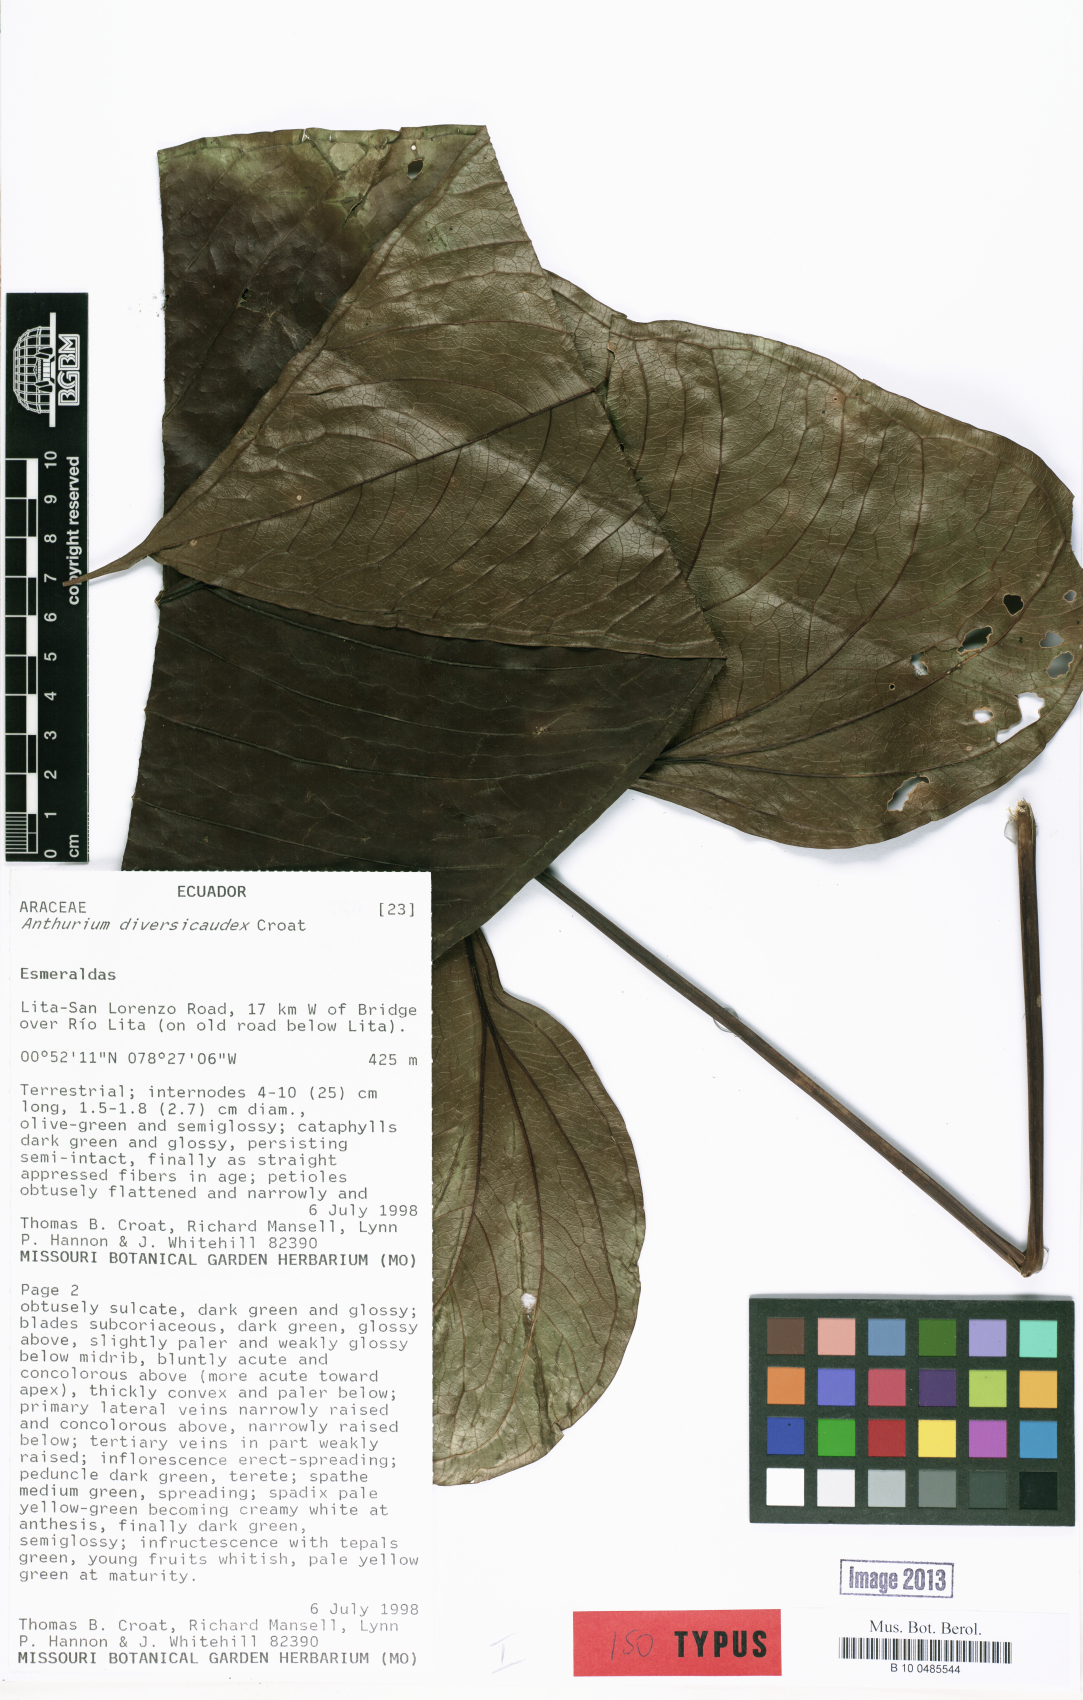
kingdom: Plantae
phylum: Tracheophyta
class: Liliopsida
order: Alismatales
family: Araceae
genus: Anthurium
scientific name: Anthurium diversicaudex
